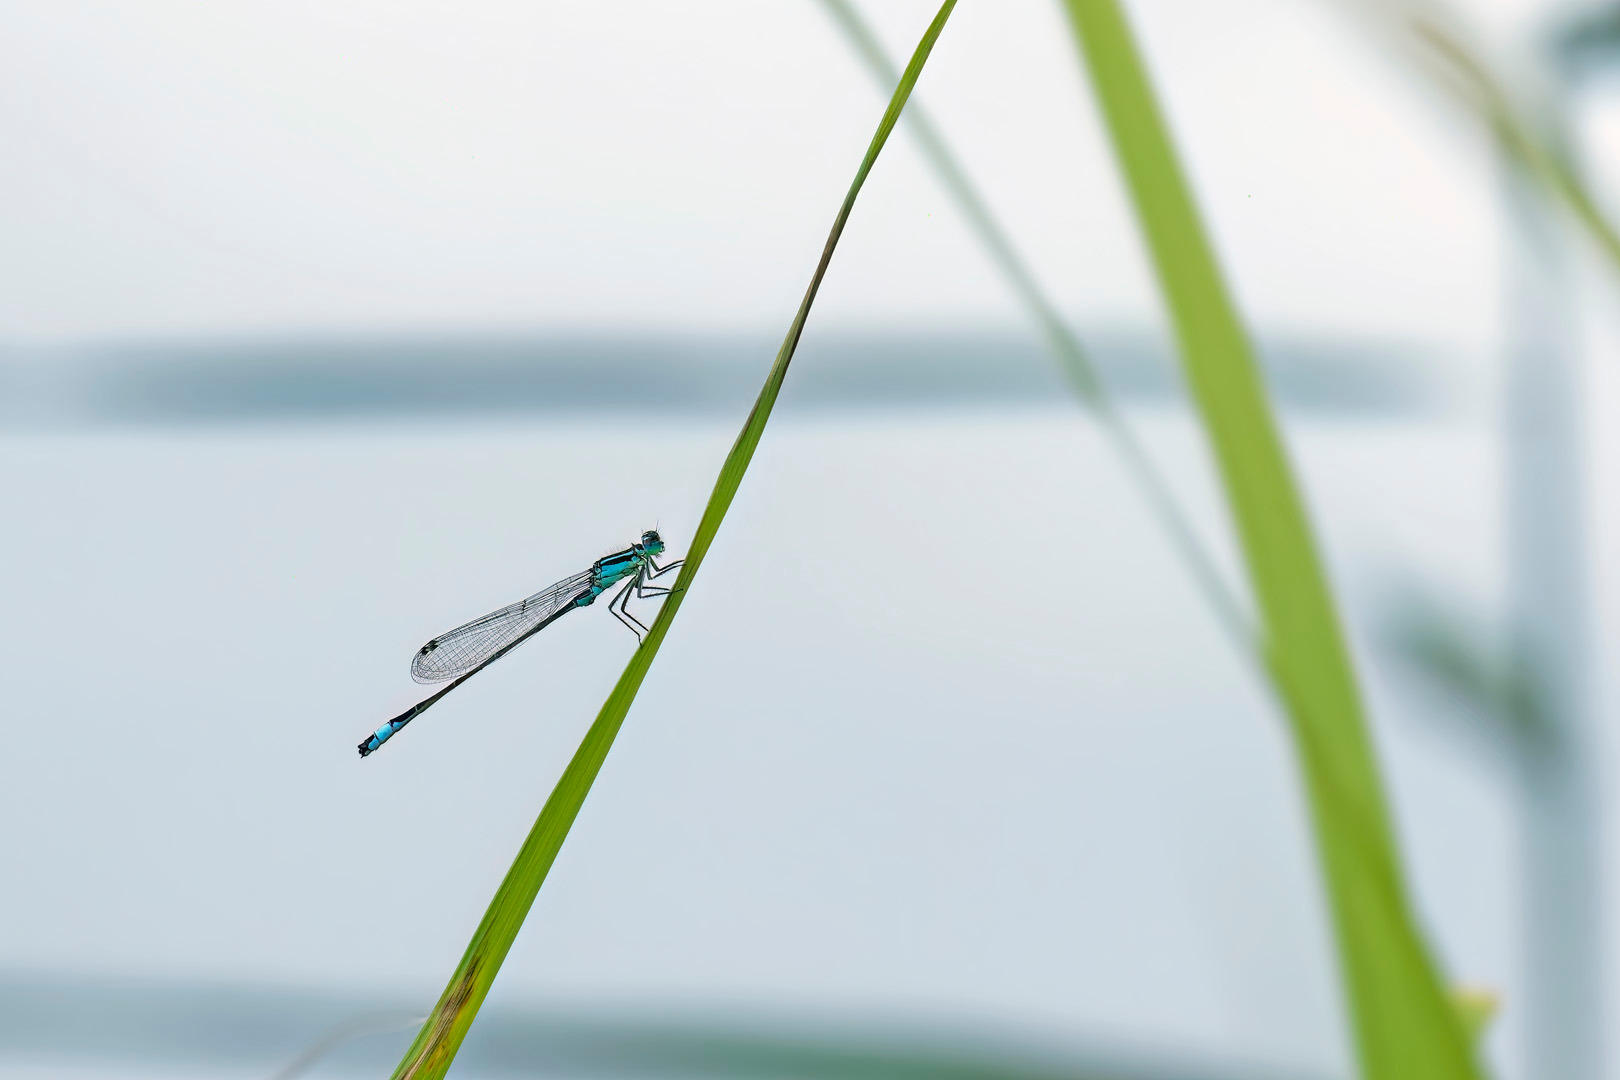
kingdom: Animalia
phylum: Arthropoda
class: Insecta
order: Odonata
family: Coenagrionidae
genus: Ischnura
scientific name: Ischnura elegans
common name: Stor farvevandnymfe
